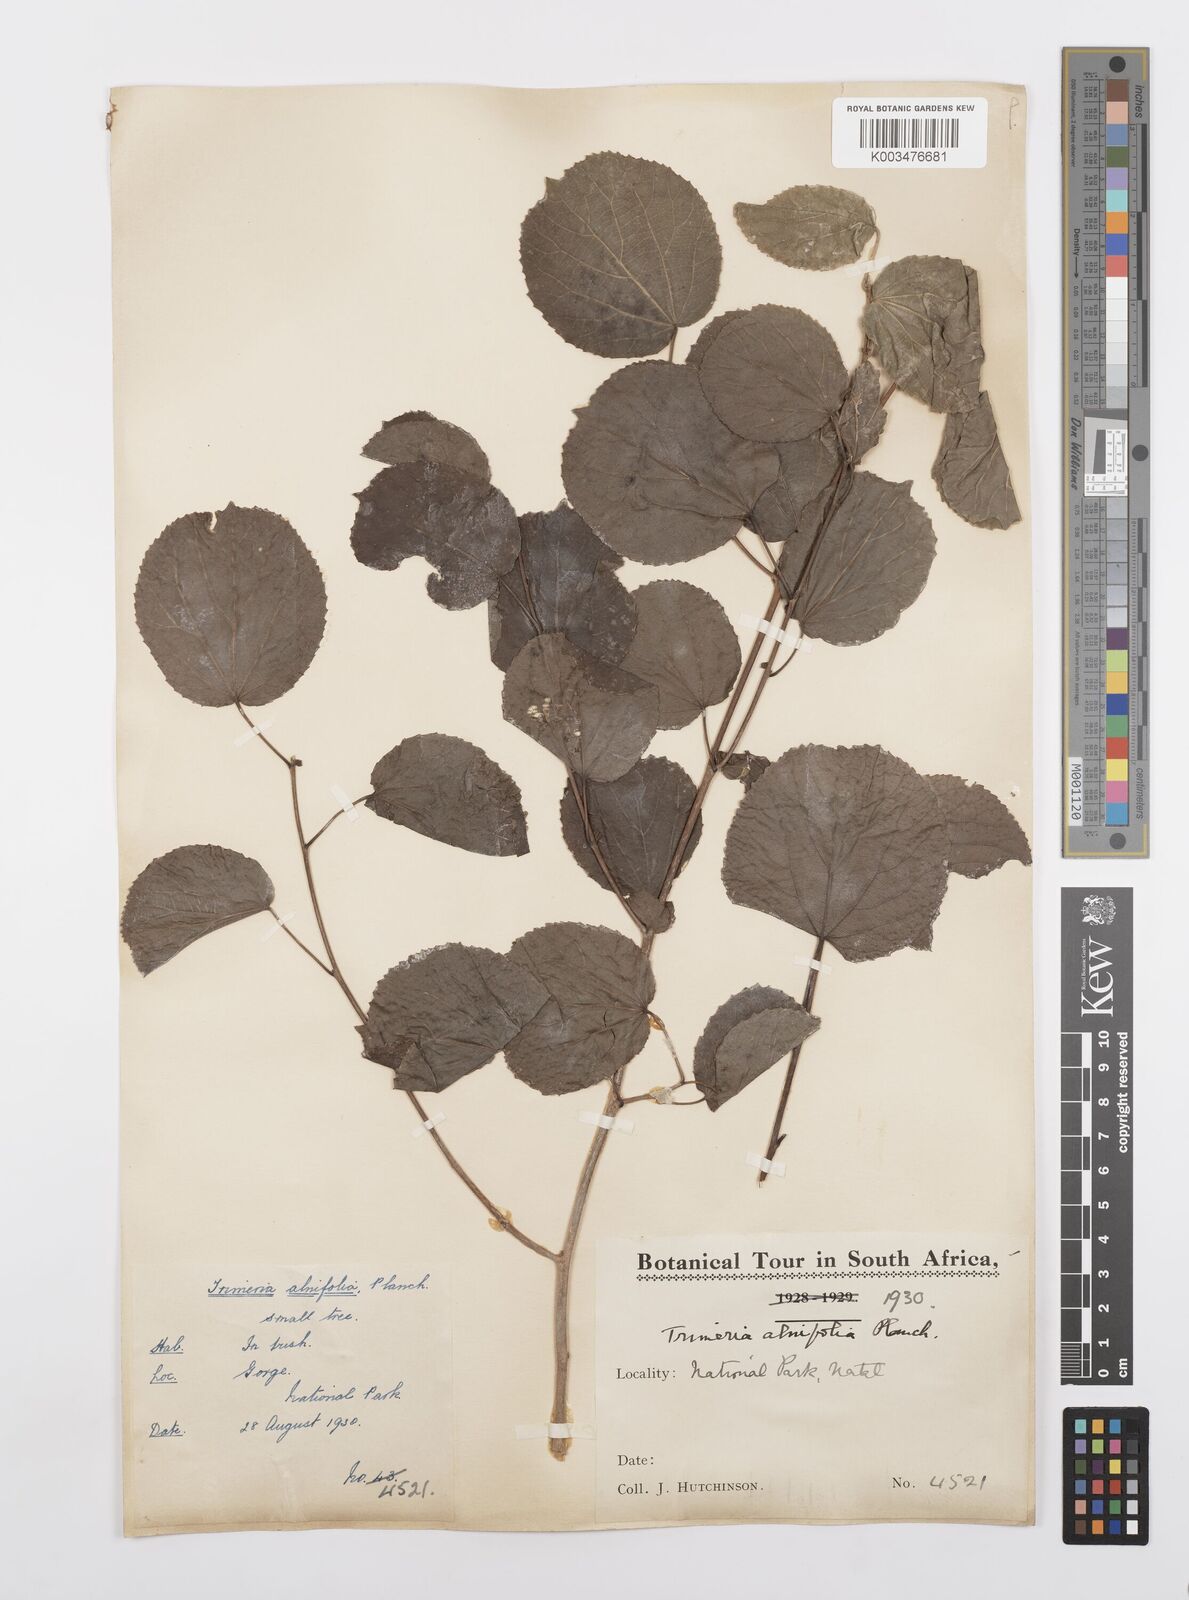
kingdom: Plantae
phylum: Tracheophyta
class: Magnoliopsida
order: Malpighiales
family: Salicaceae
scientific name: Salicaceae
